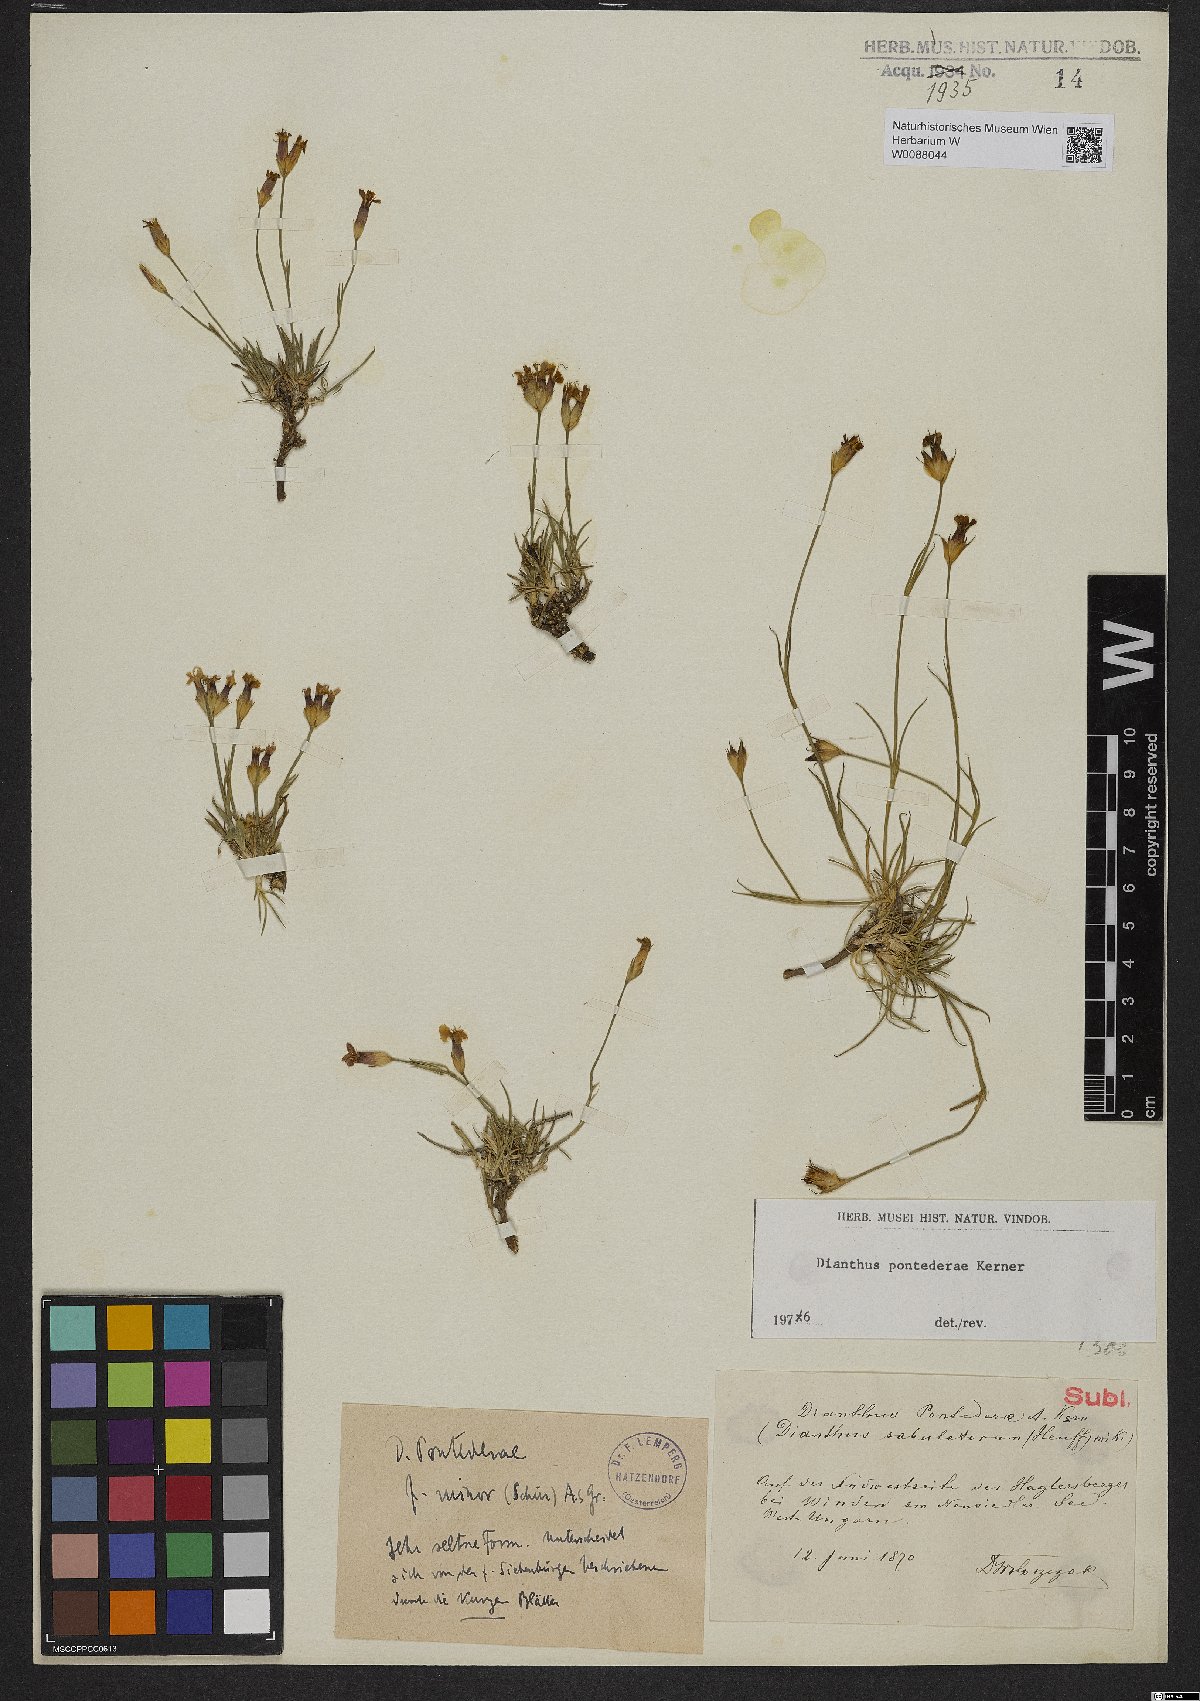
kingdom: Plantae
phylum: Tracheophyta
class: Magnoliopsida
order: Caryophyllales
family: Caryophyllaceae
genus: Dianthus
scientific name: Dianthus pontederae
